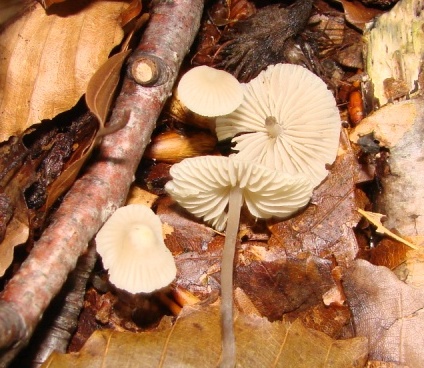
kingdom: Fungi
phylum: Basidiomycota
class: Agaricomycetes
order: Agaricales
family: Mycenaceae
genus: Mycena
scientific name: Mycena flavescens
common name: grågul huesvamp
